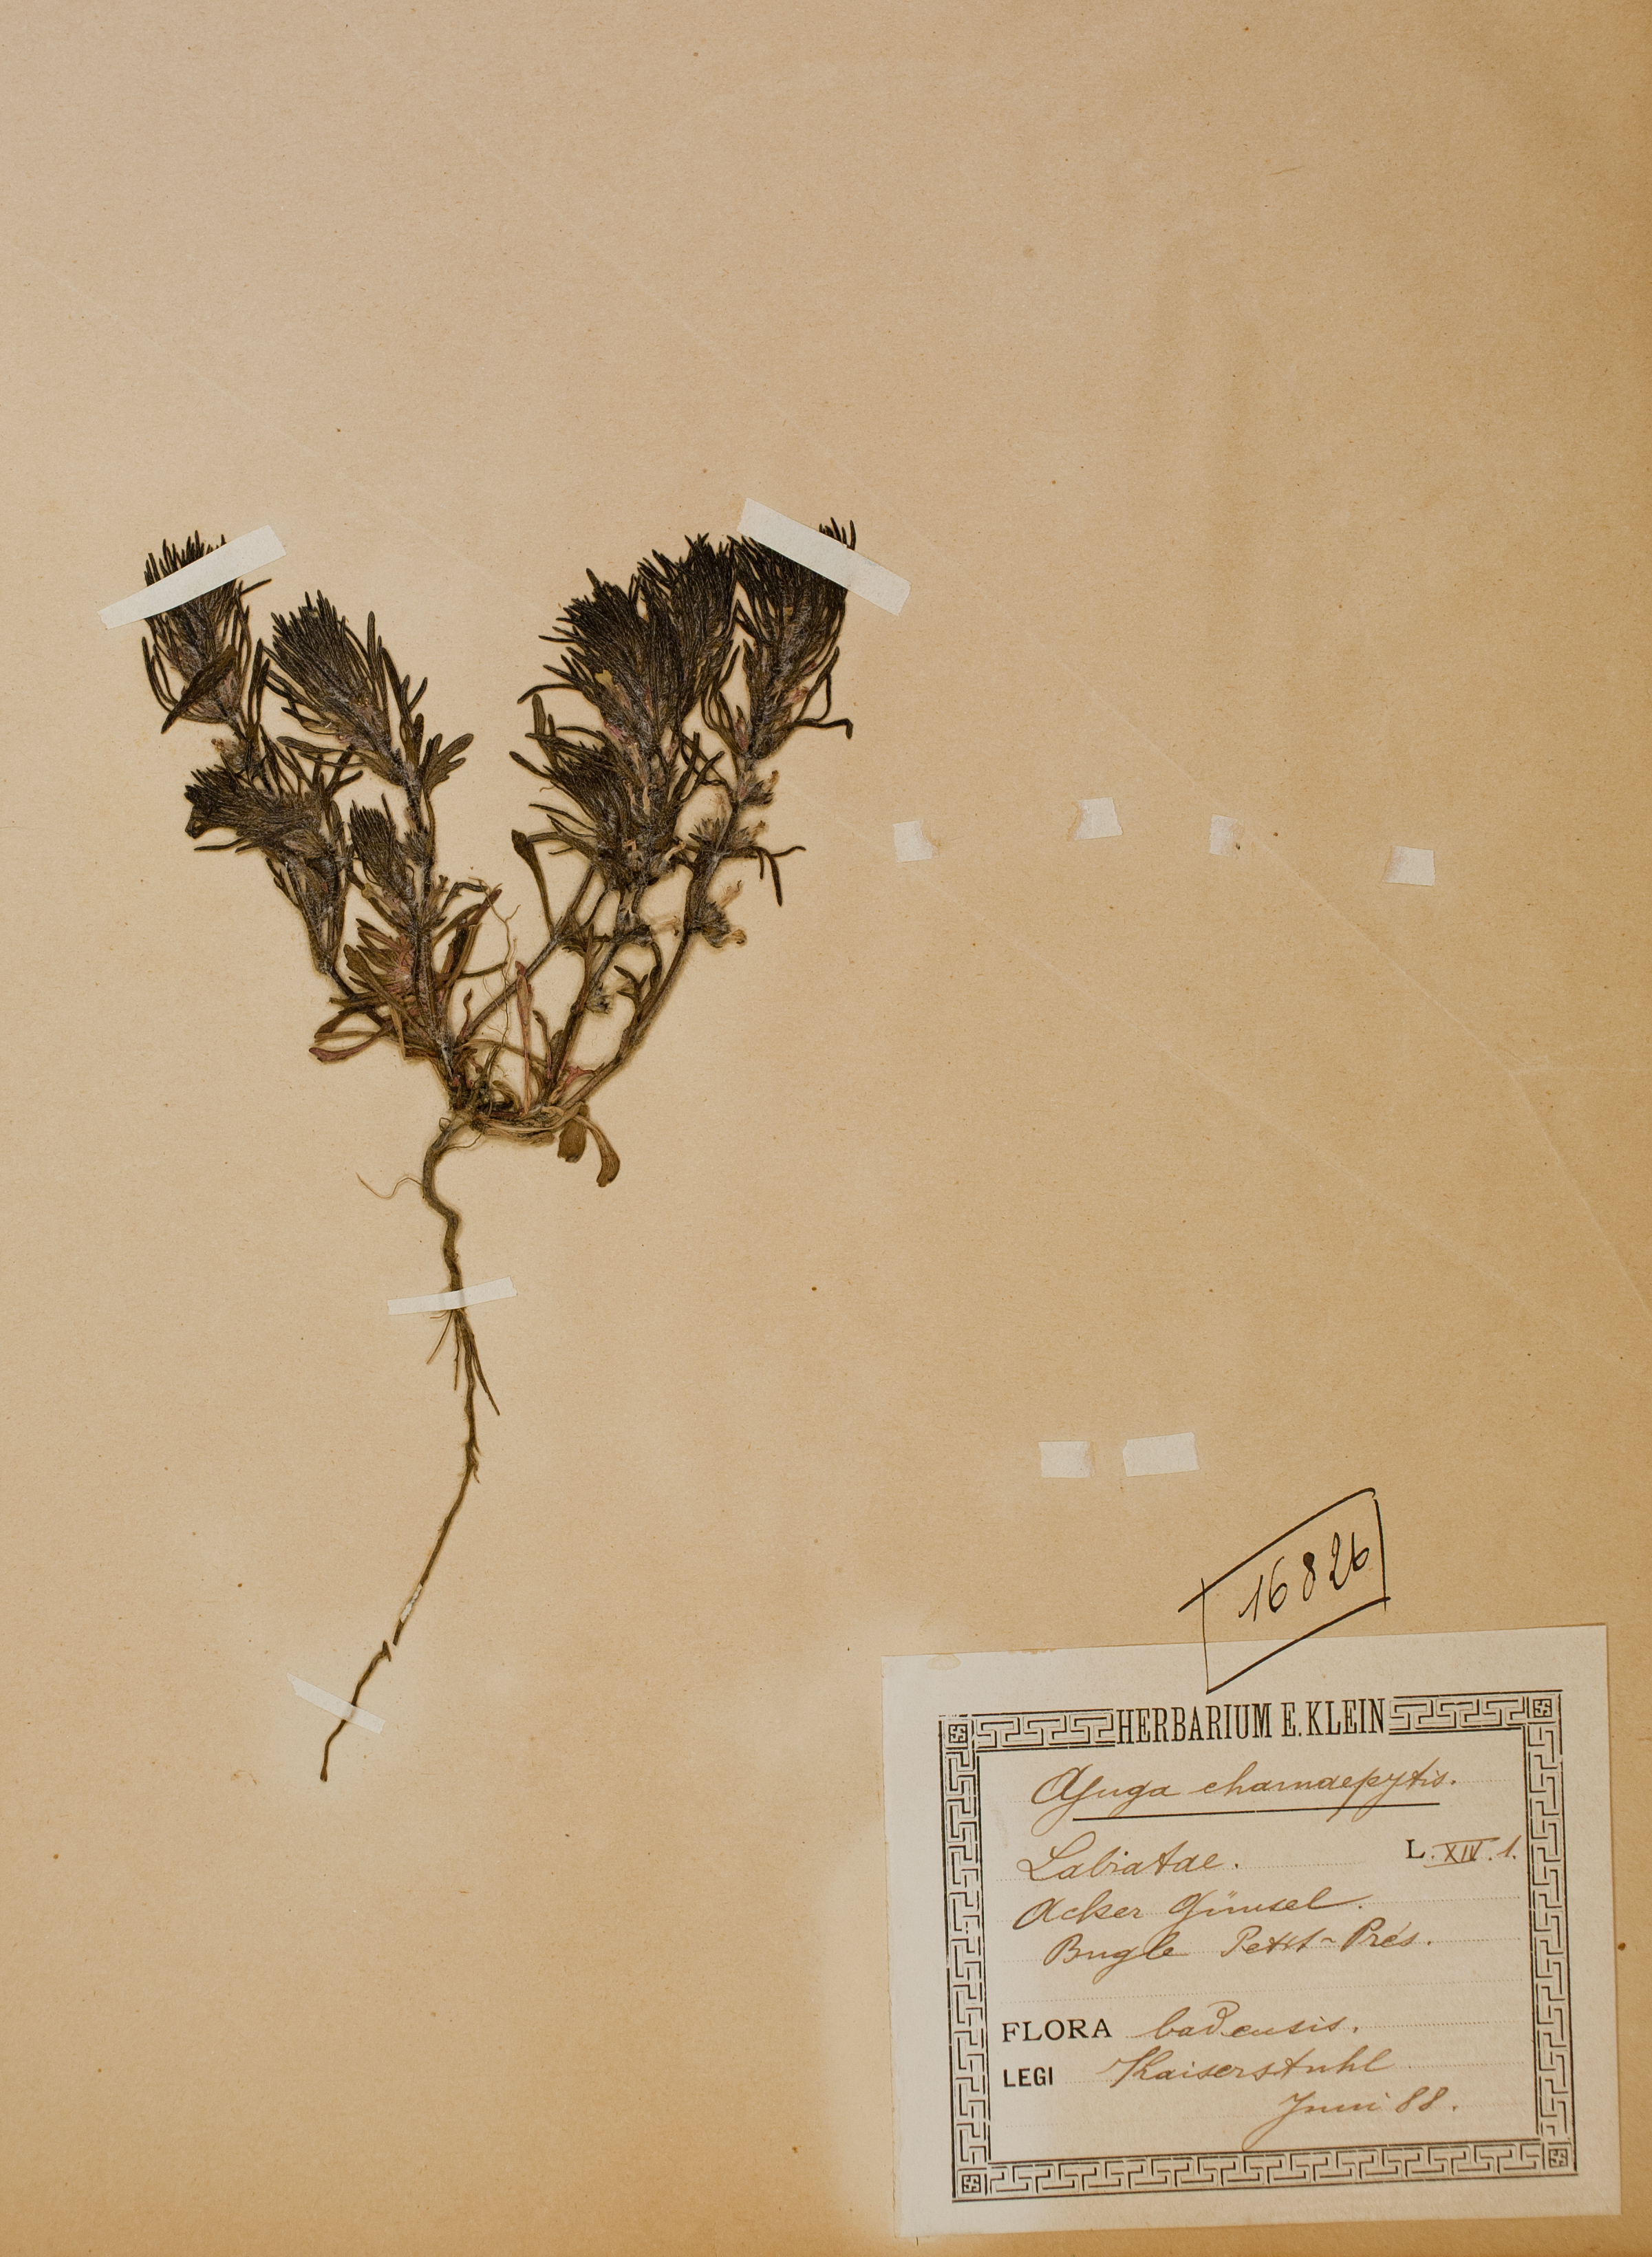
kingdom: Plantae
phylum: Tracheophyta
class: Magnoliopsida
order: Lamiales
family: Lamiaceae
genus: Ajuga
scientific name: Ajuga chamaepitys
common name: Ground-pine
